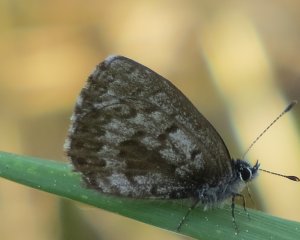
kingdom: Animalia
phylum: Arthropoda
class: Insecta
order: Lepidoptera
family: Lycaenidae
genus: Celastrina
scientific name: Celastrina
